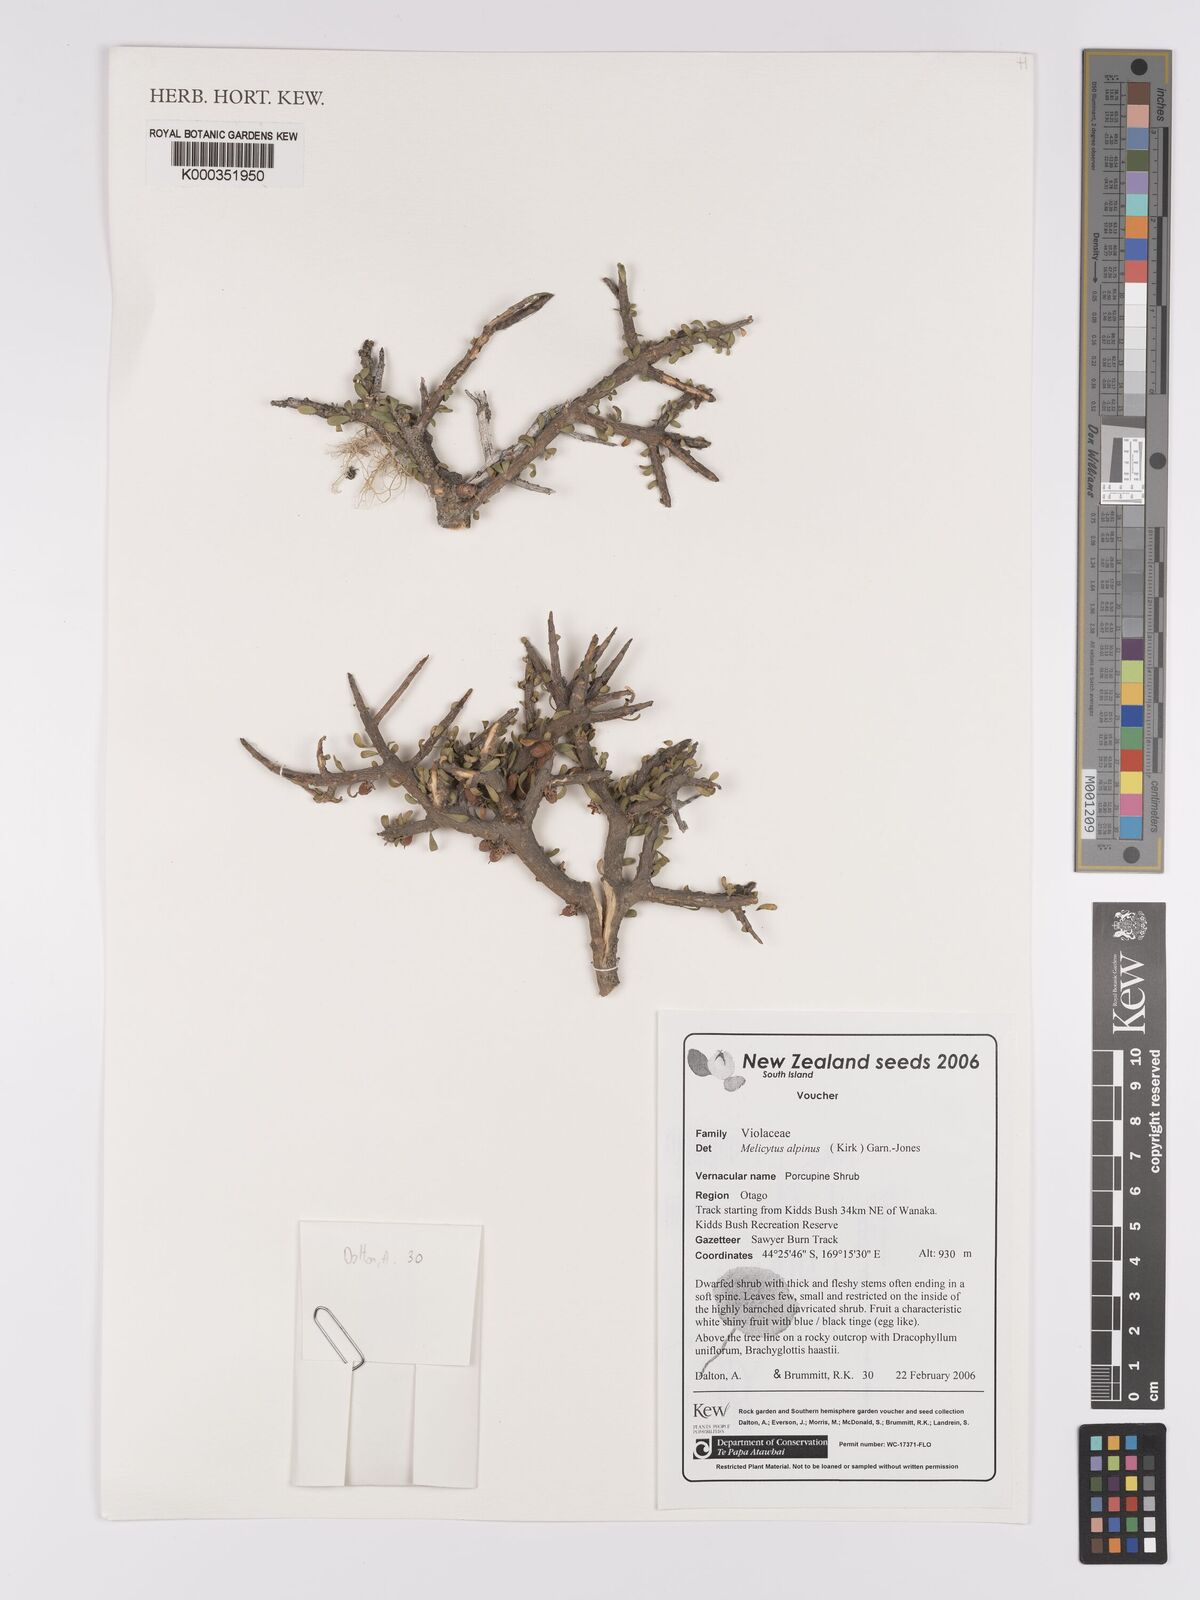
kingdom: Plantae
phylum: Tracheophyta
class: Magnoliopsida
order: Malpighiales
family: Violaceae
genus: Melicytus
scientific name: Melicytus alpinus
